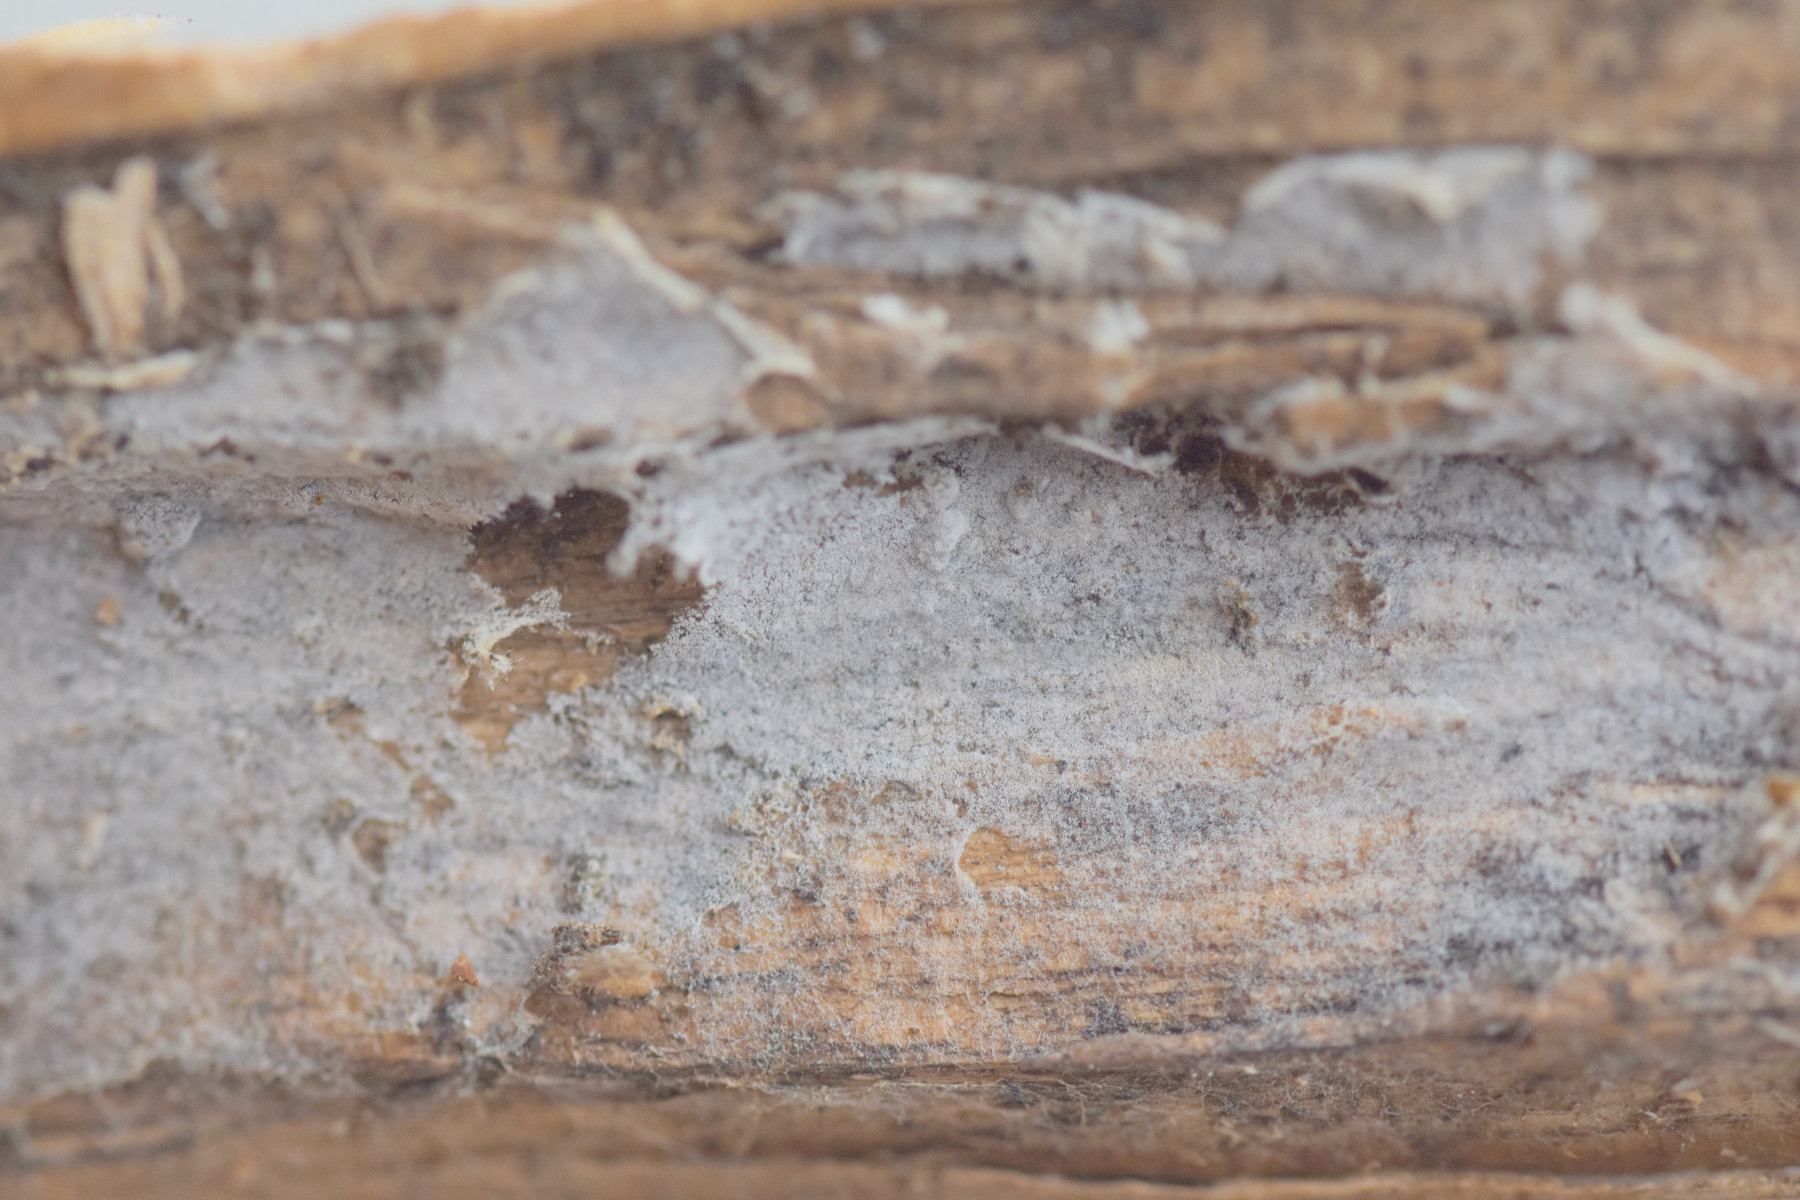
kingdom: Fungi
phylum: Basidiomycota
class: Agaricomycetes
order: Cantharellales
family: Botryobasidiaceae
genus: Botryobasidium
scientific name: Botryobasidium vagum
